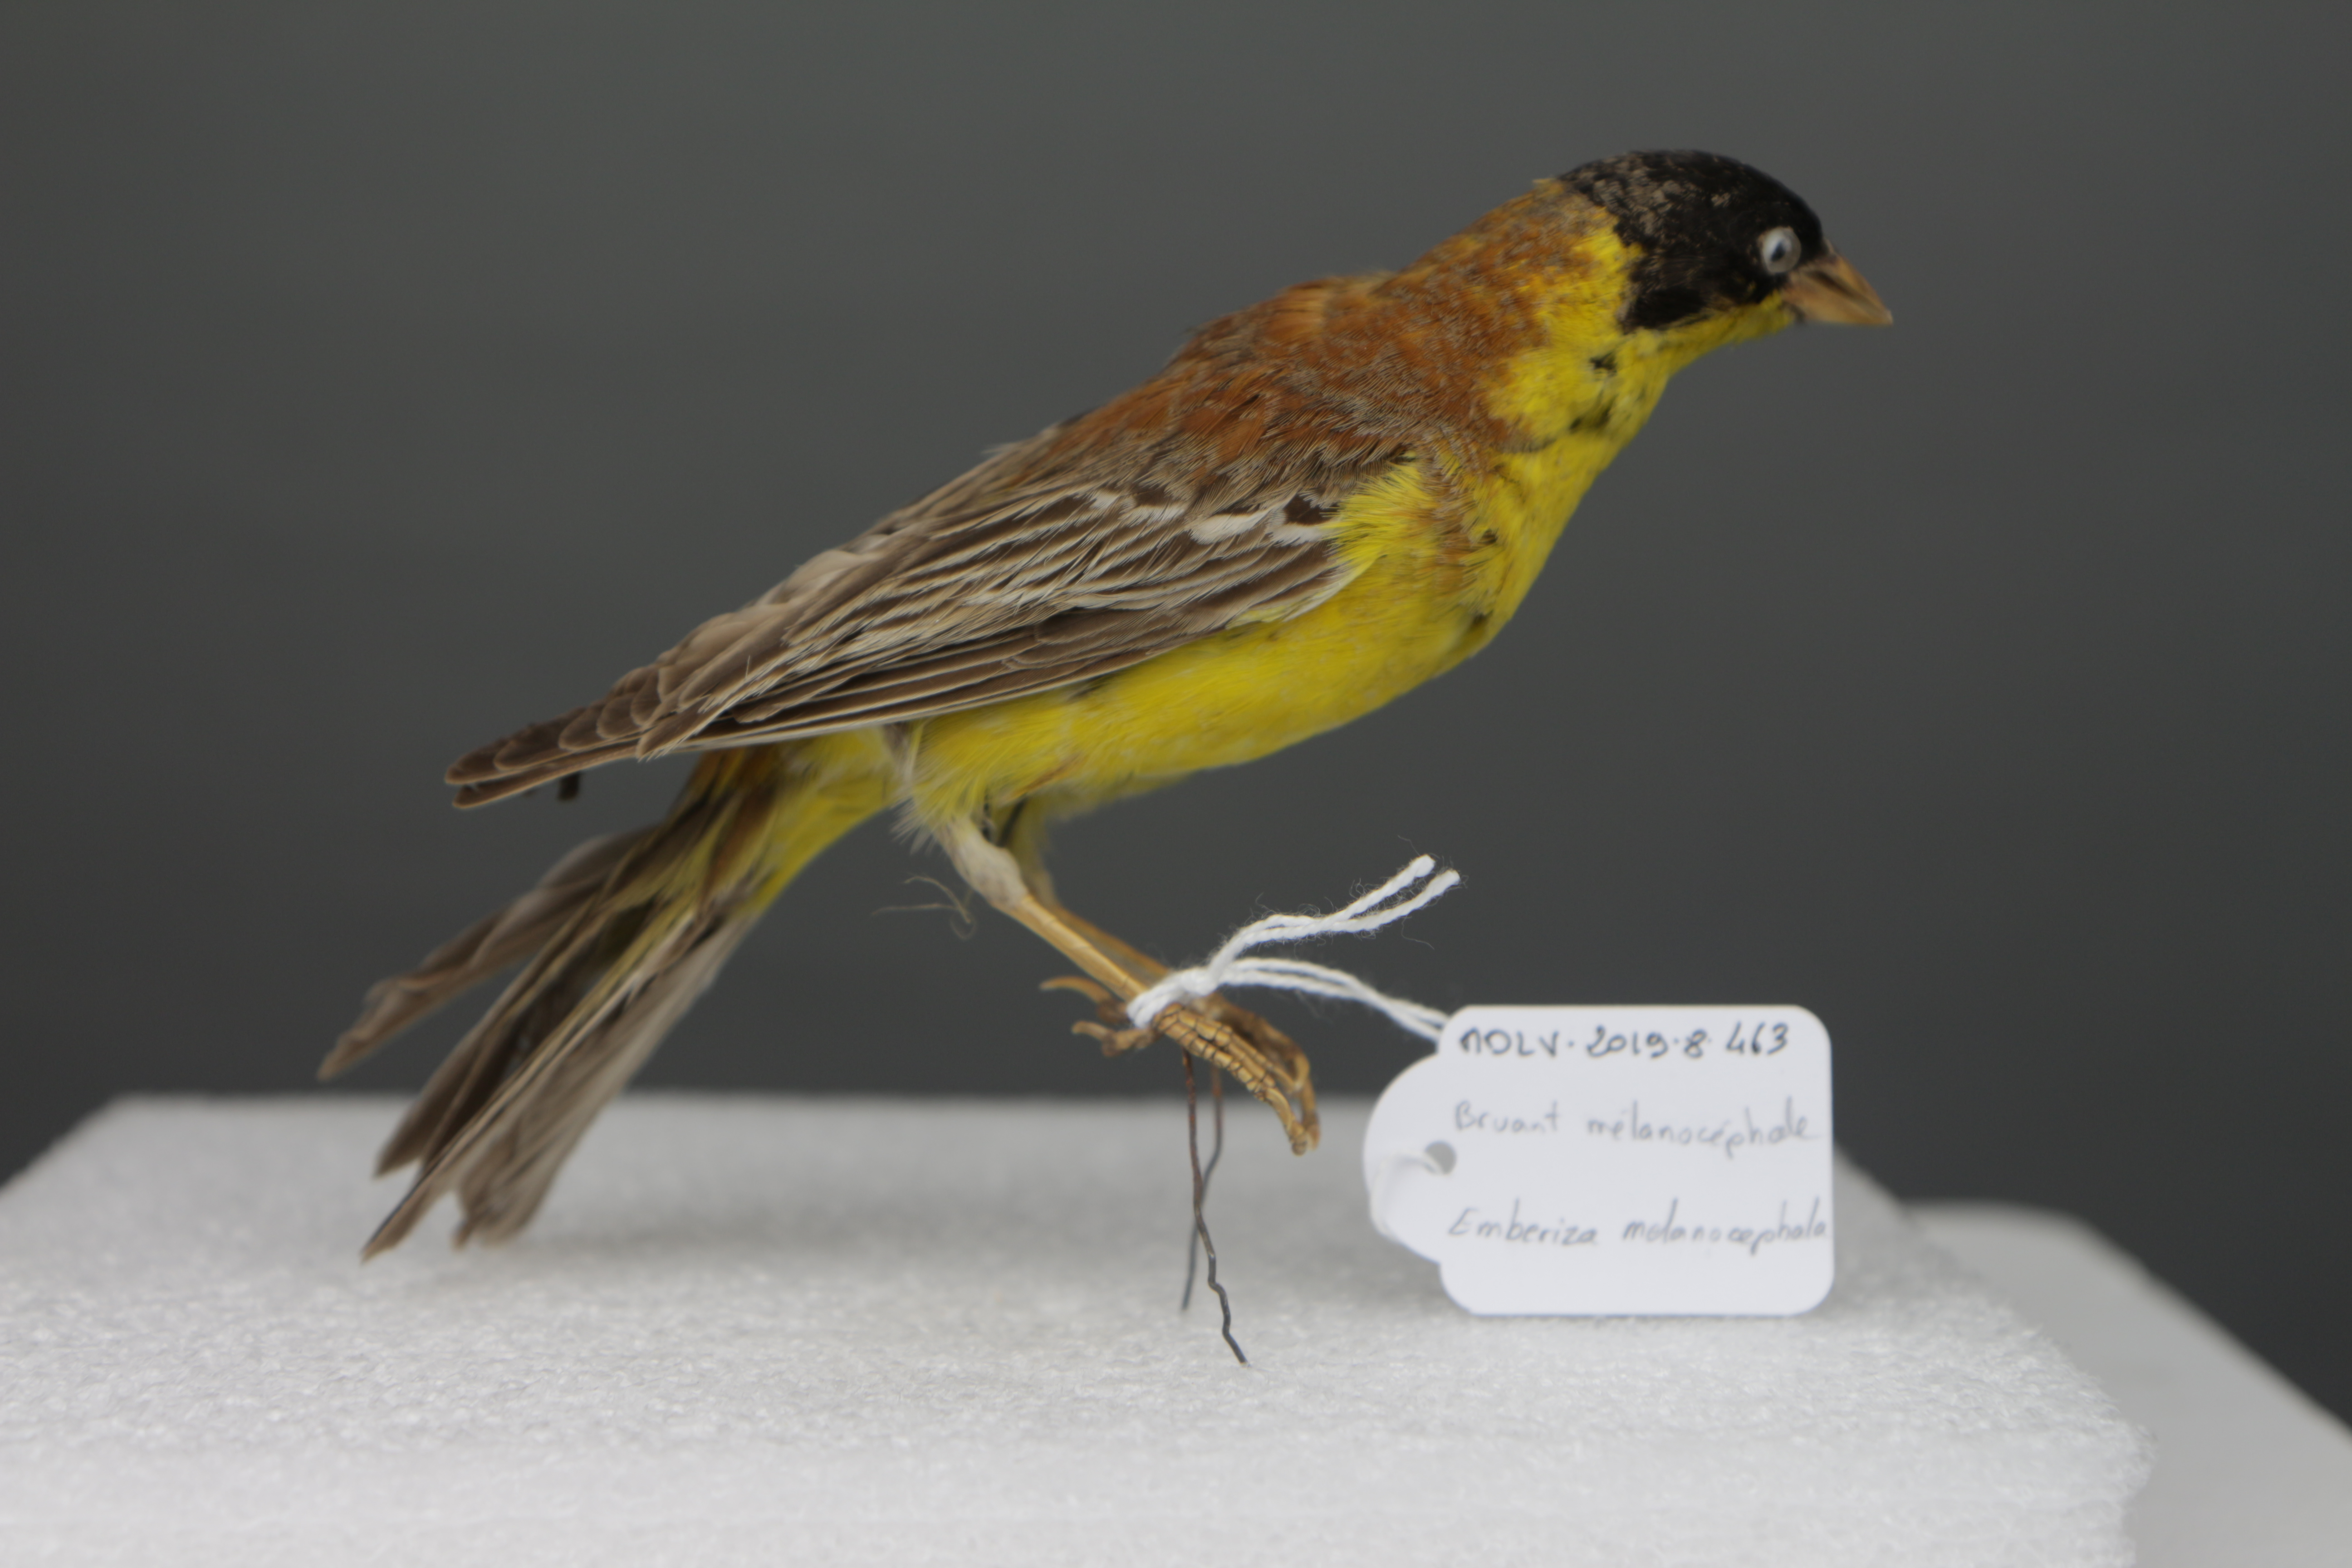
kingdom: Animalia
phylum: Chordata
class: Aves
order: Passeriformes
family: Emberizidae
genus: Emberiza
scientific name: Emberiza melanocephala
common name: Black-headed bunting
